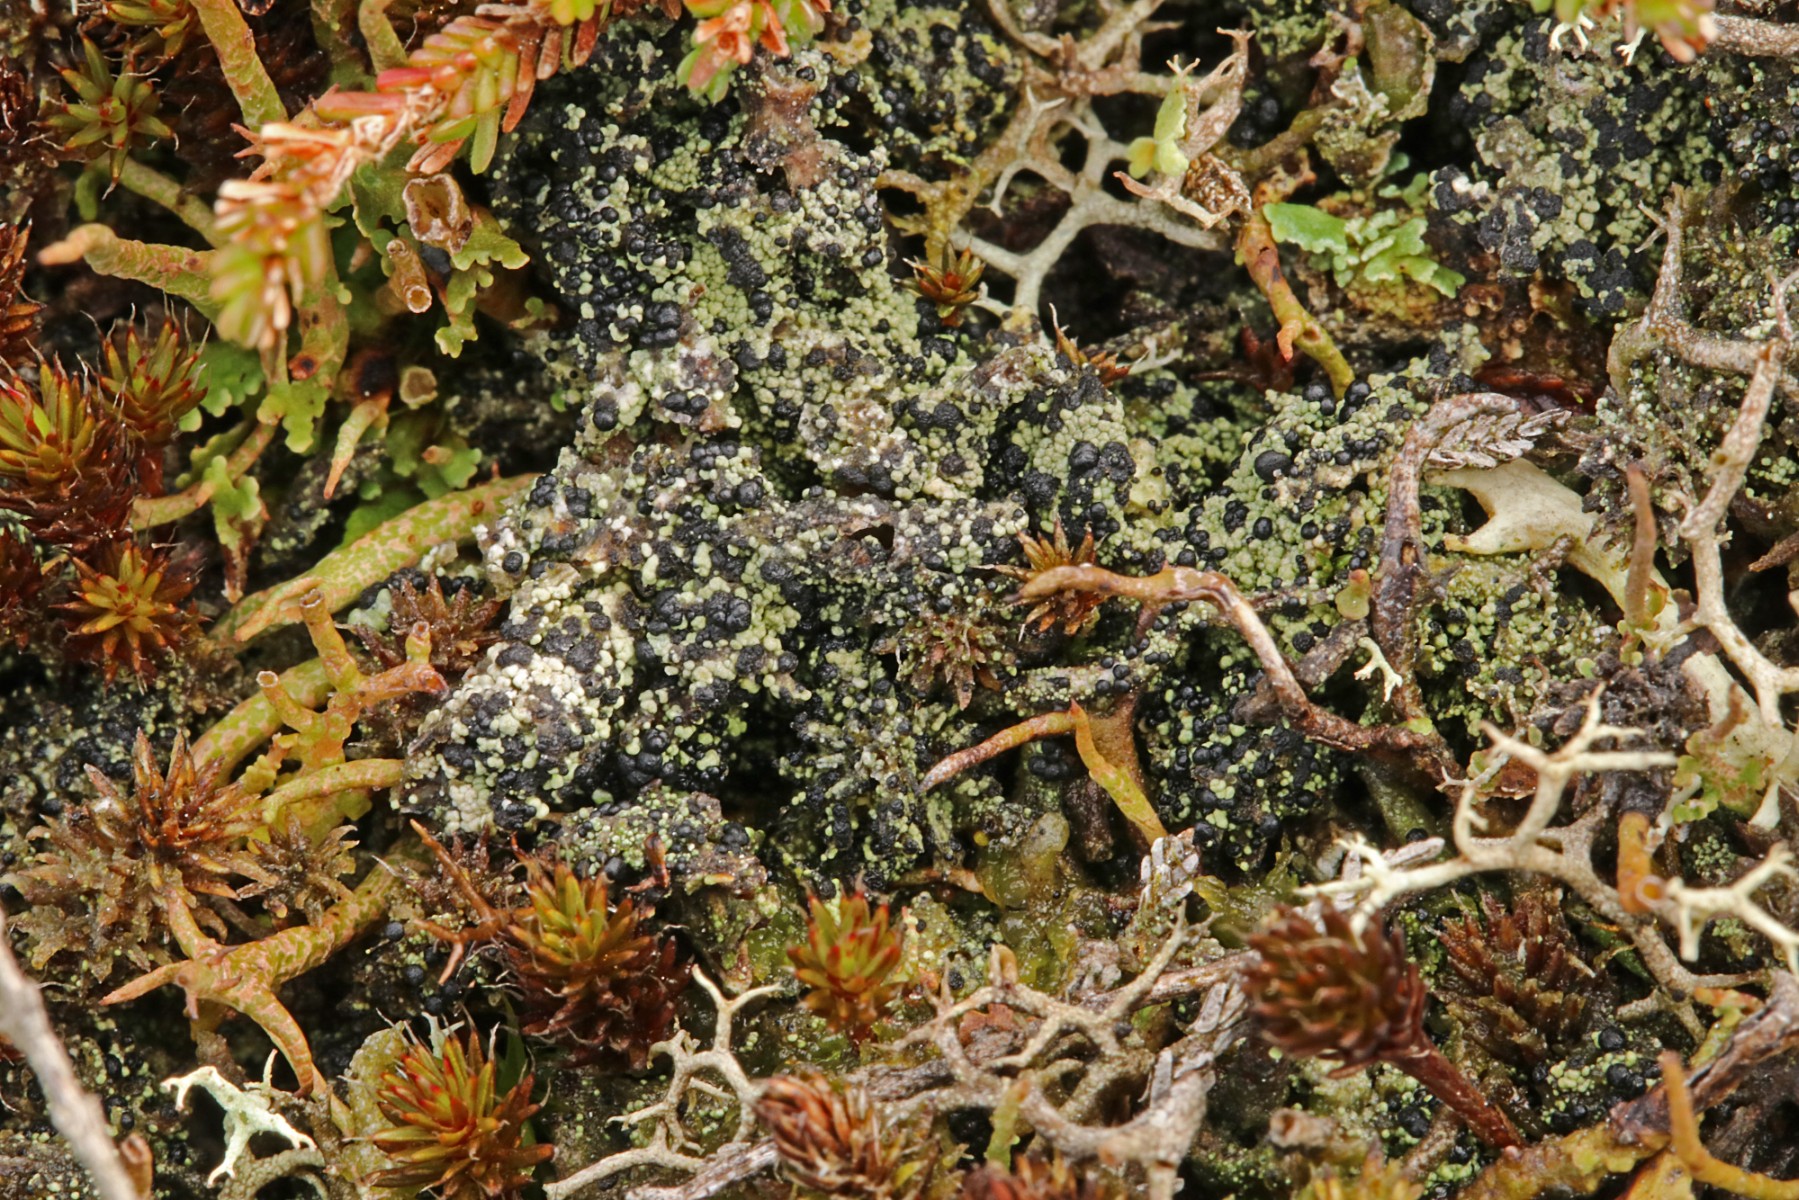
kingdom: Fungi
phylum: Ascomycota
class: Lecanoromycetes
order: Lecanorales
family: Byssolomataceae
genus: Micarea
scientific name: Micarea lignaria
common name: tørve-knaplav
